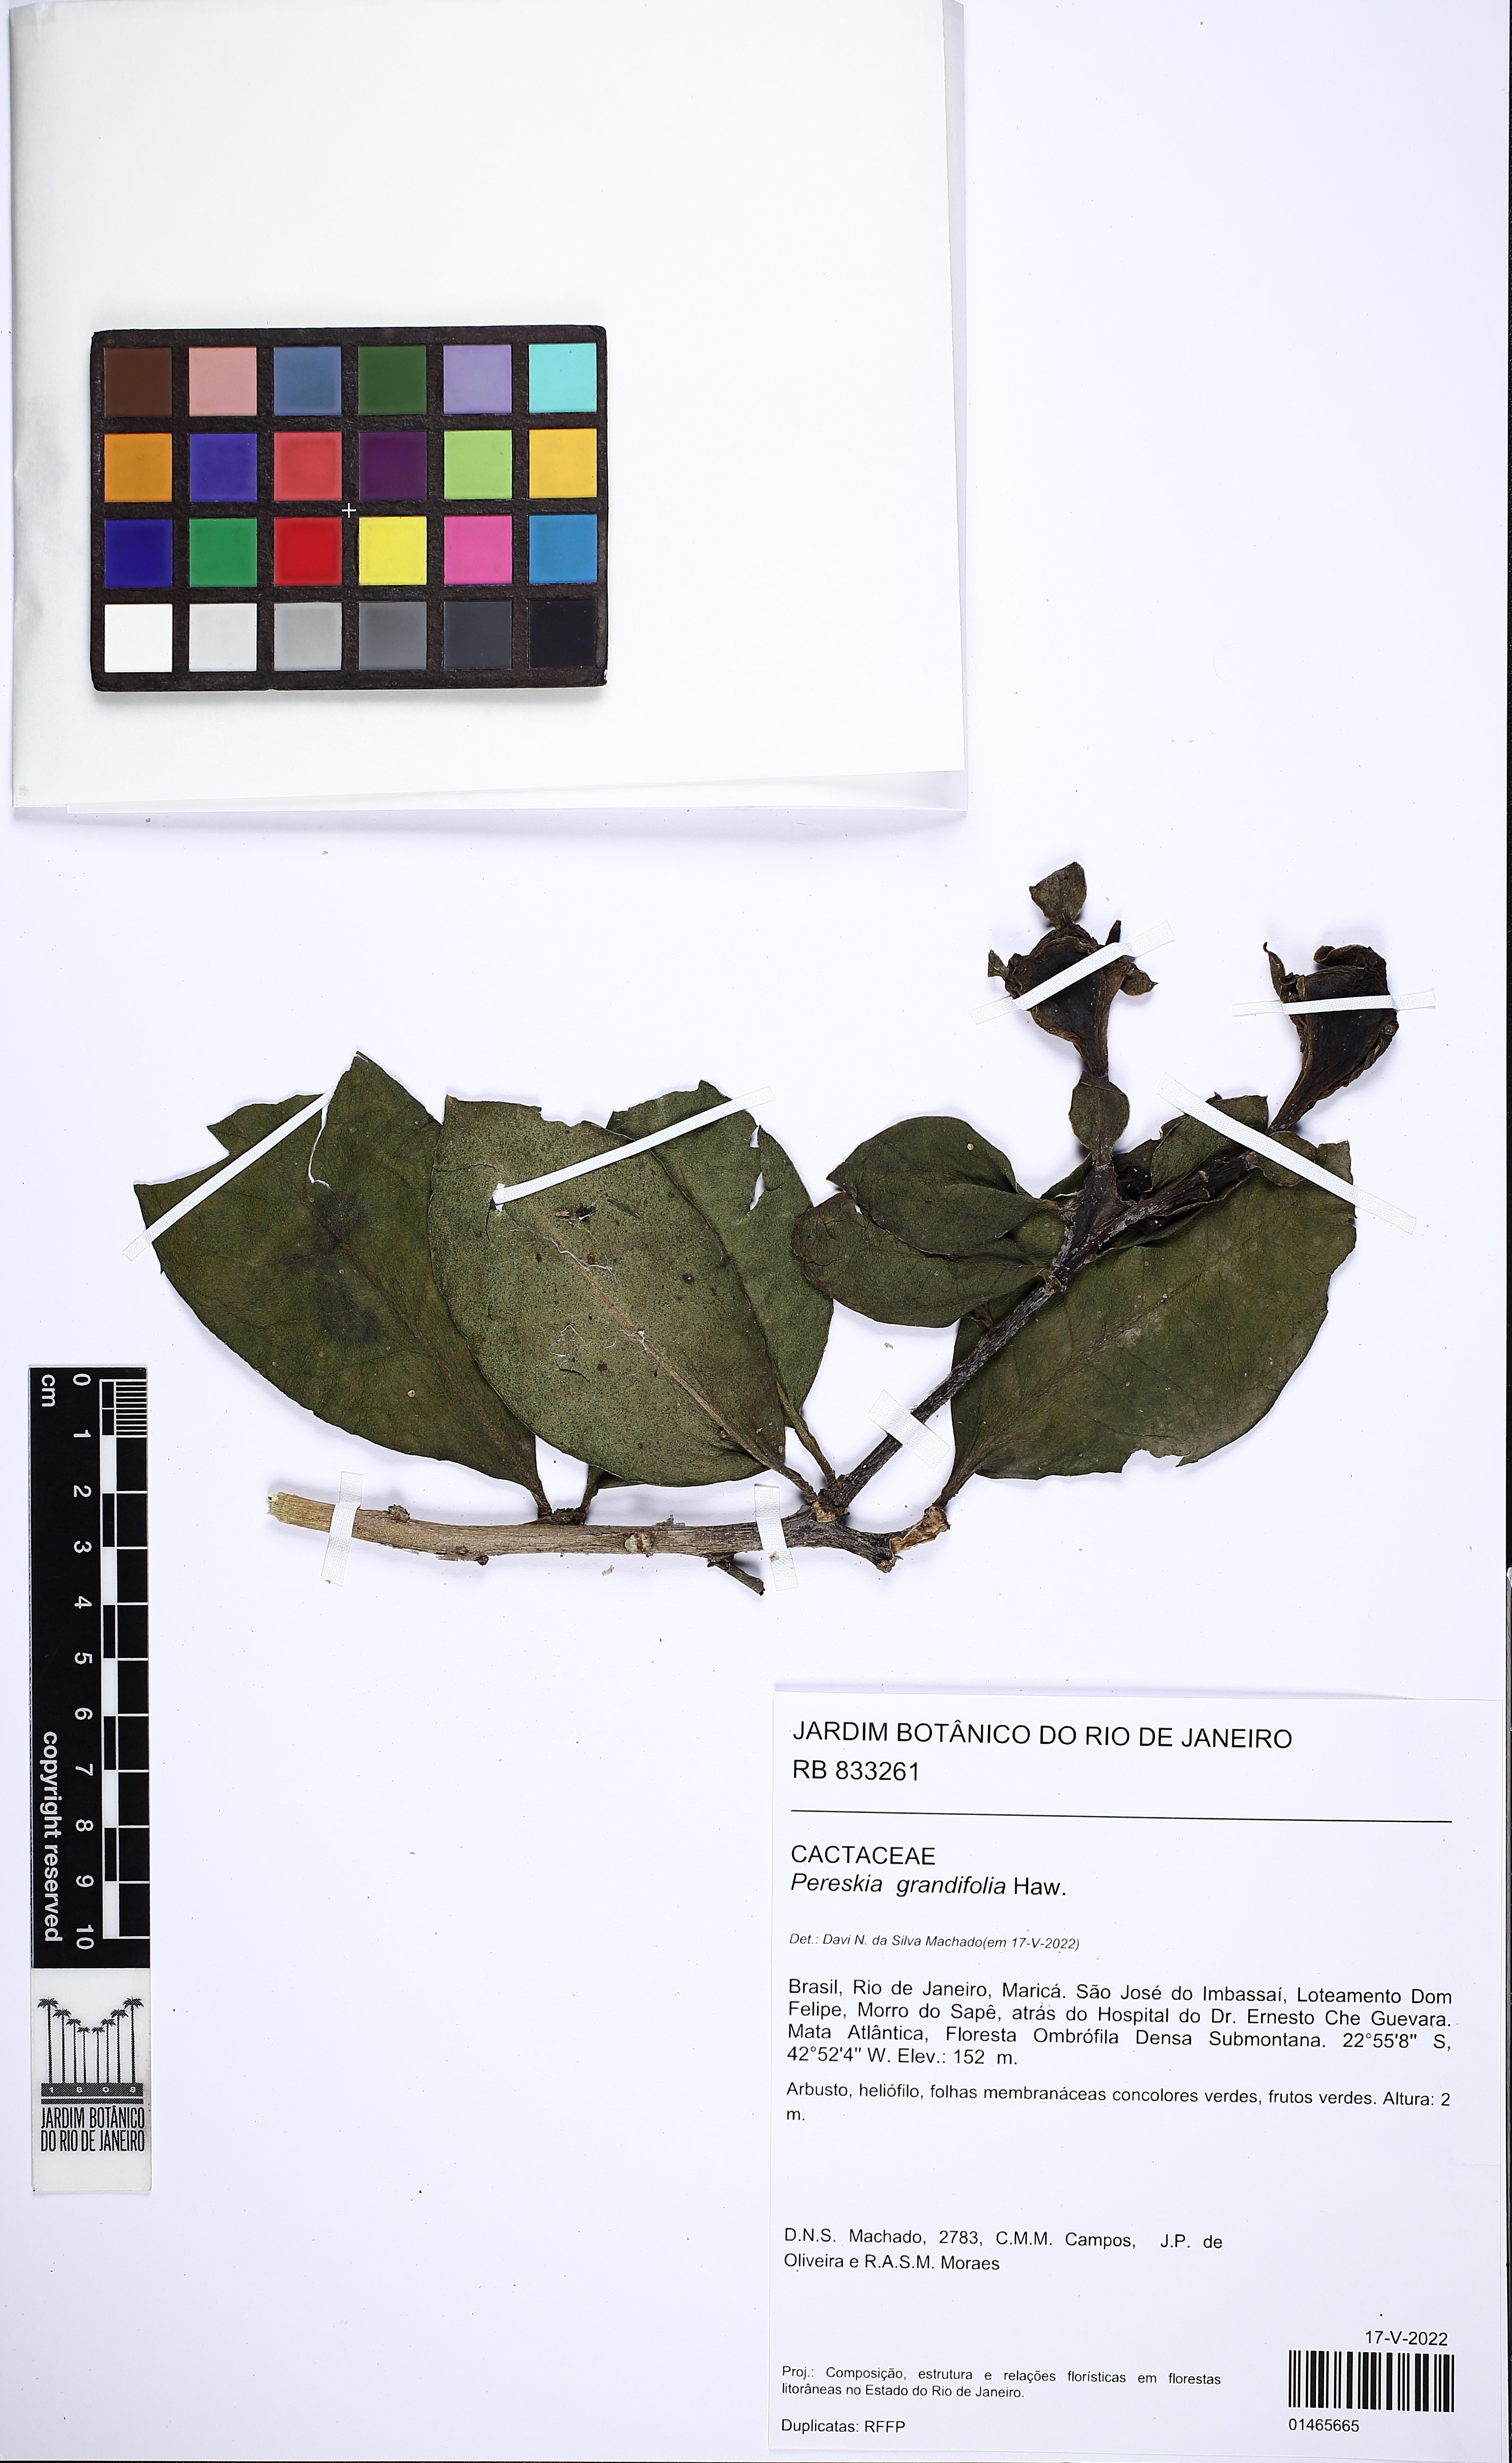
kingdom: Plantae
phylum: Tracheophyta
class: Magnoliopsida
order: Caryophyllales
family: Cactaceae
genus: Pereskia
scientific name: Pereskia grandifolia
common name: Rose cactus
